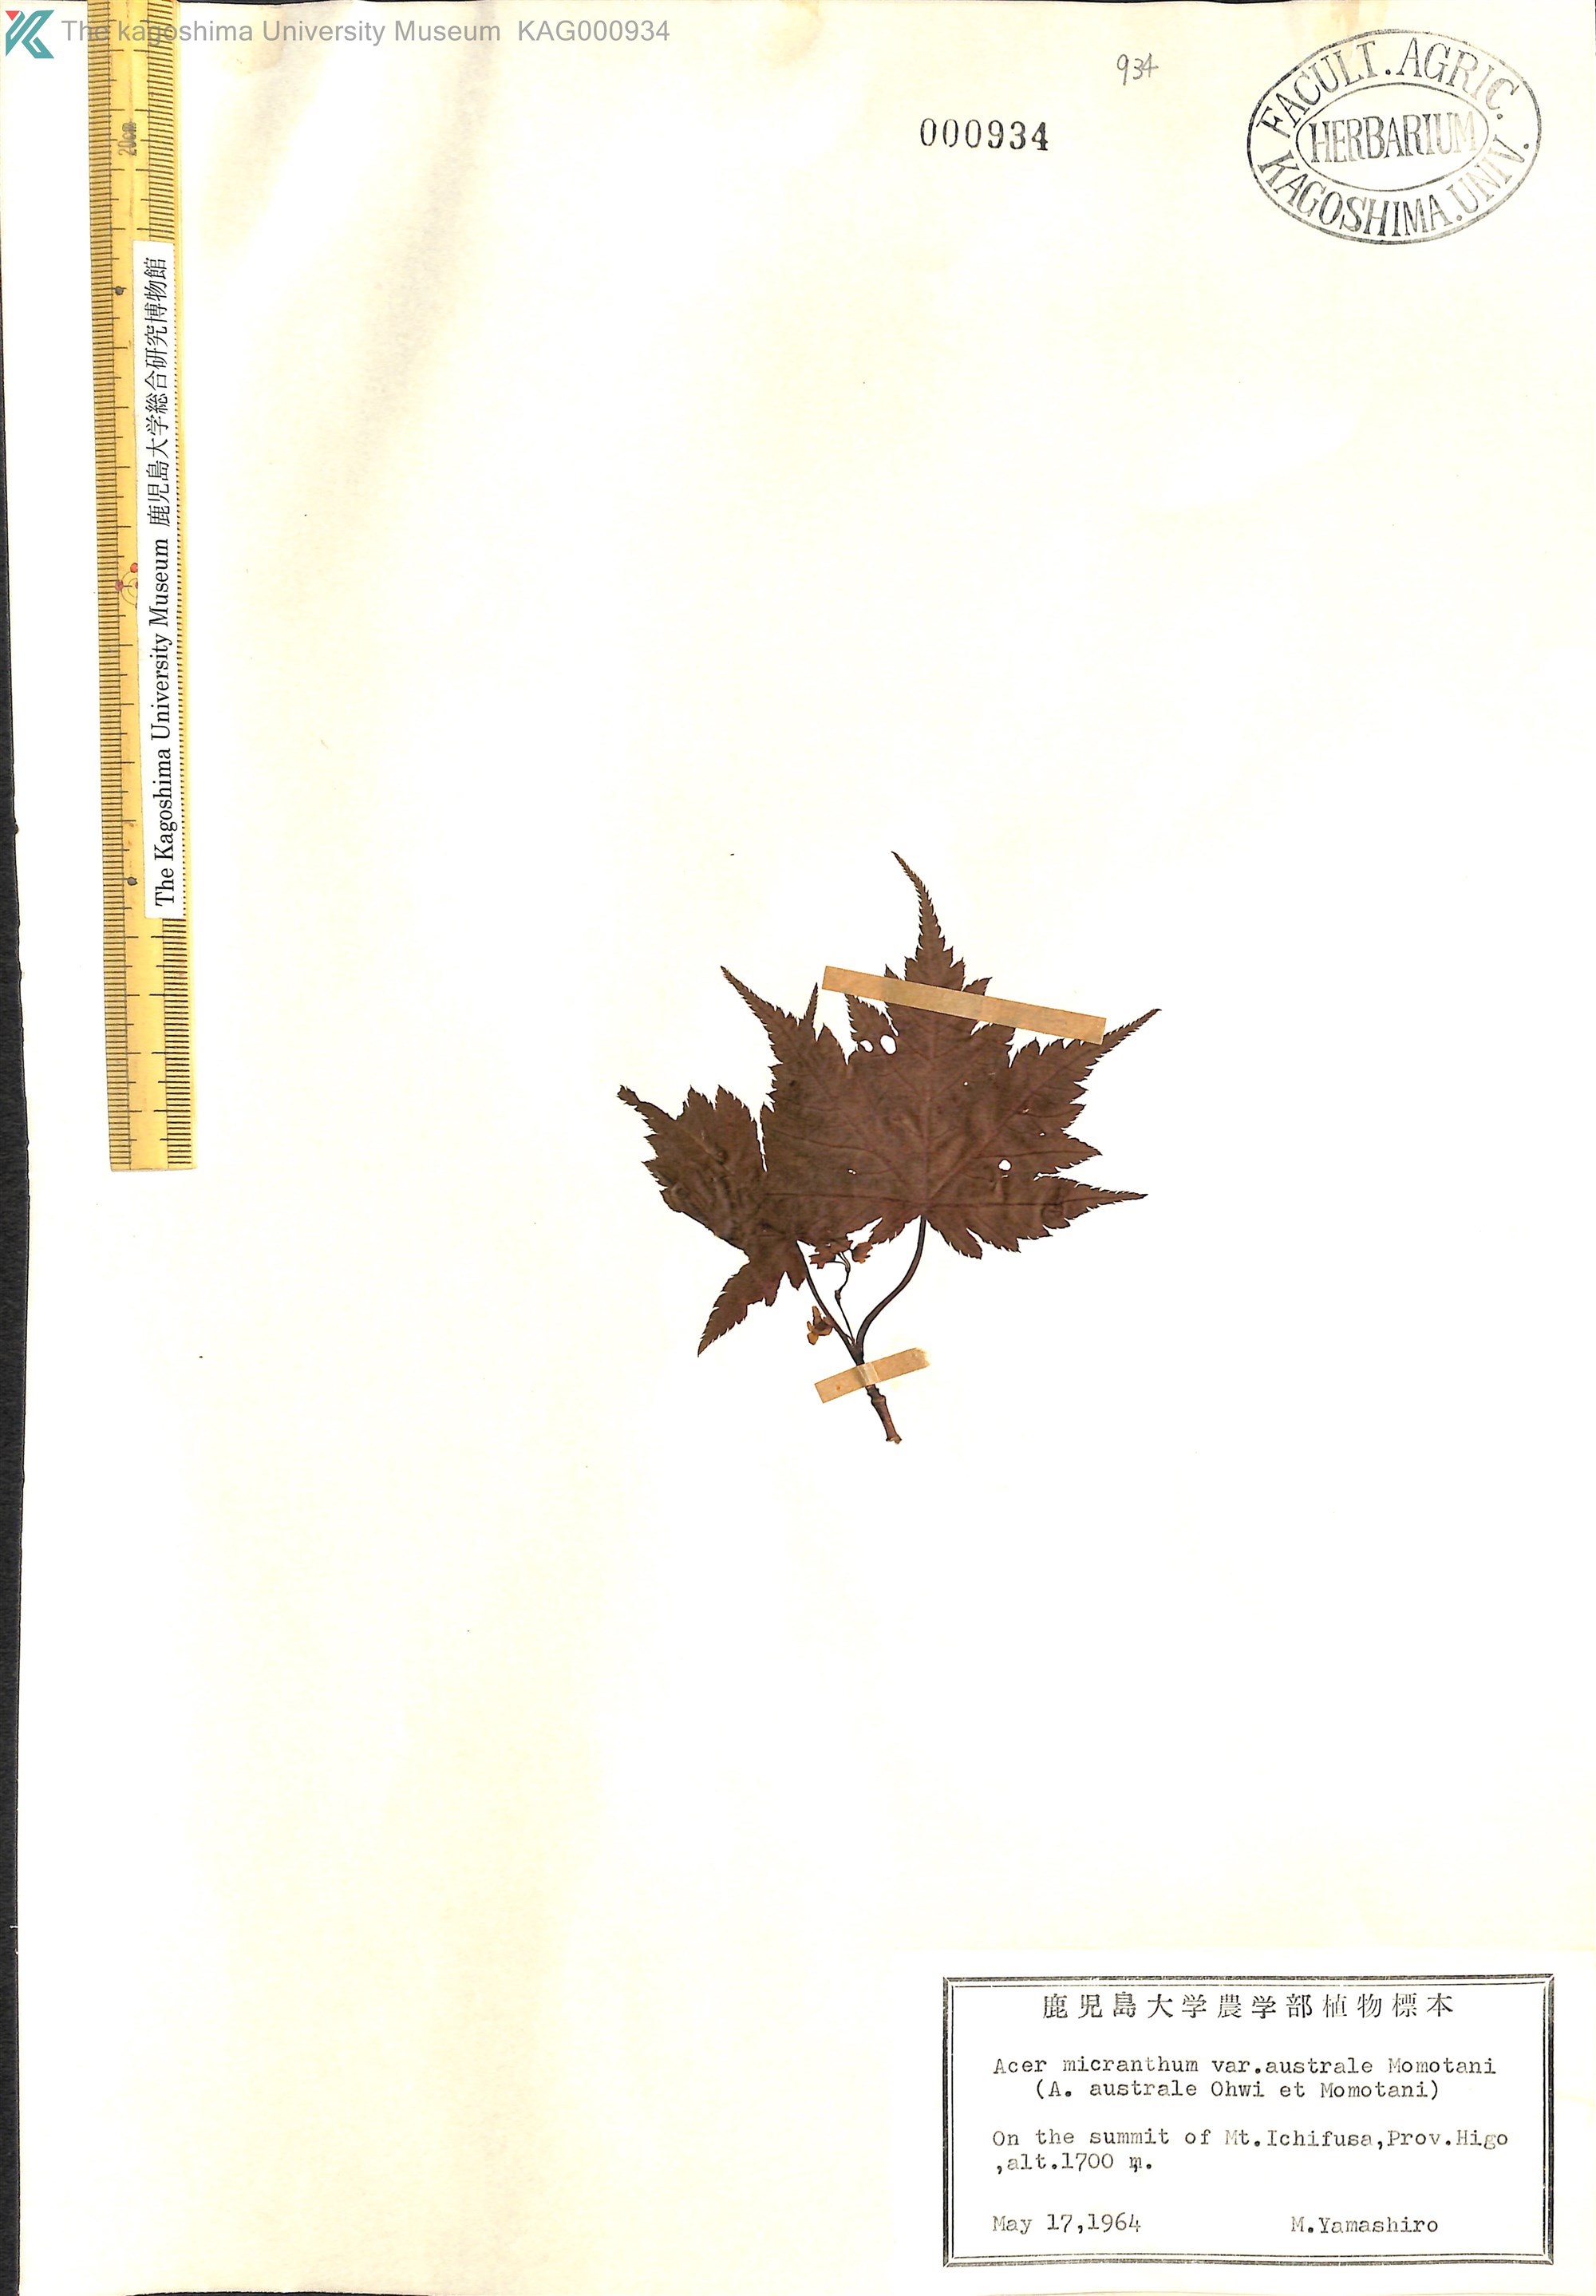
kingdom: Plantae
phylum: Tracheophyta
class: Magnoliopsida
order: Sapindales
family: Sapindaceae
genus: Acer
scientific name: Acer micranthum
